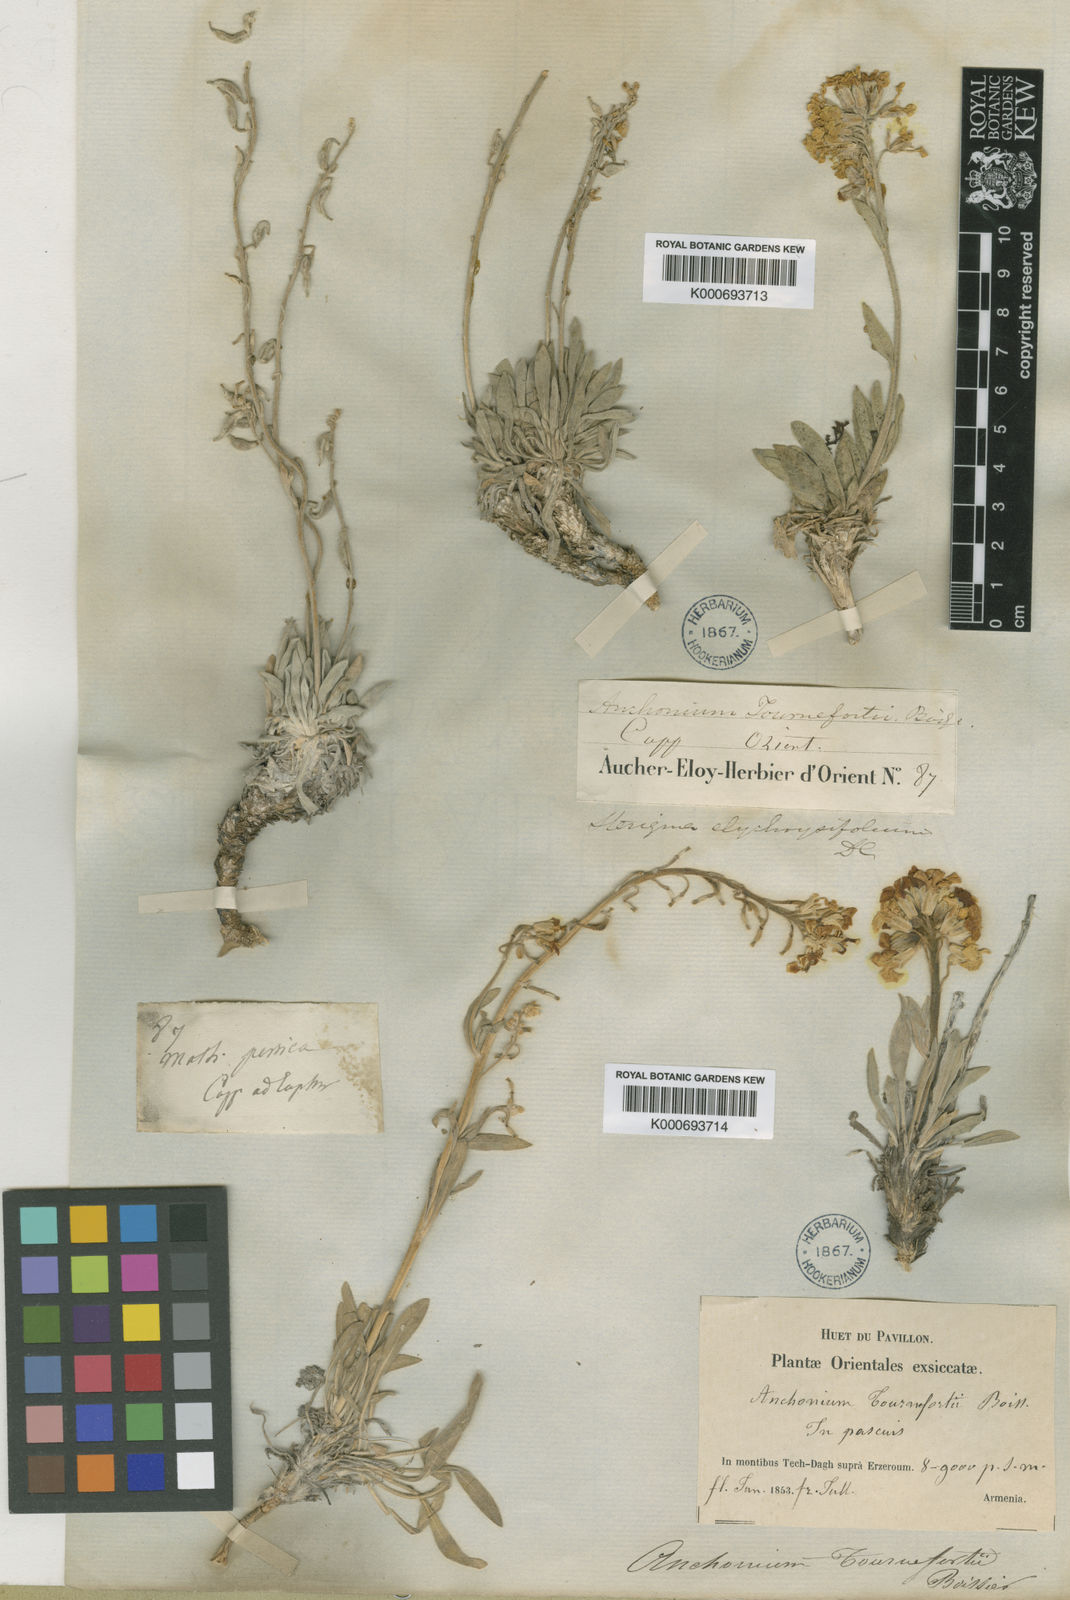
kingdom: Plantae
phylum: Tracheophyta
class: Magnoliopsida
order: Brassicales
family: Brassicaceae
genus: Anchonium
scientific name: Anchonium elichrysifolium
